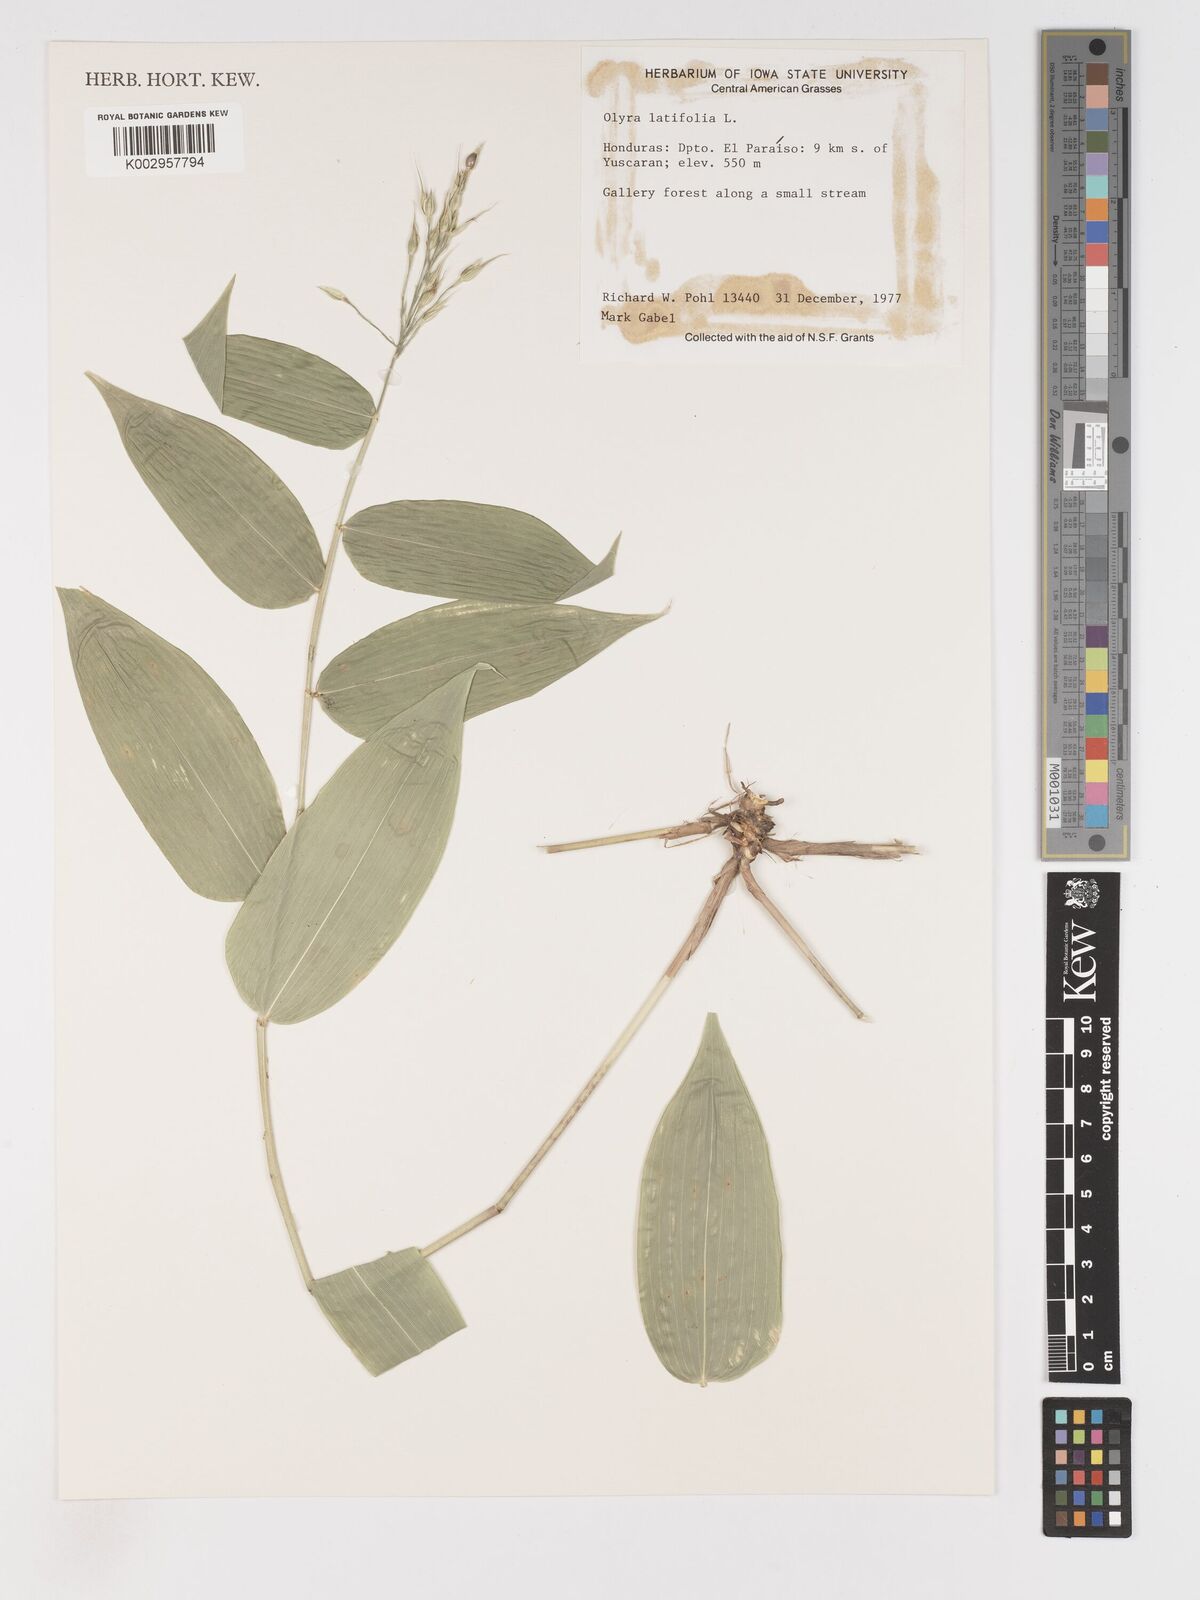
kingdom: Plantae
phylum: Tracheophyta
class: Liliopsida
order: Poales
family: Poaceae
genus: Olyra
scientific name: Olyra latifolia
